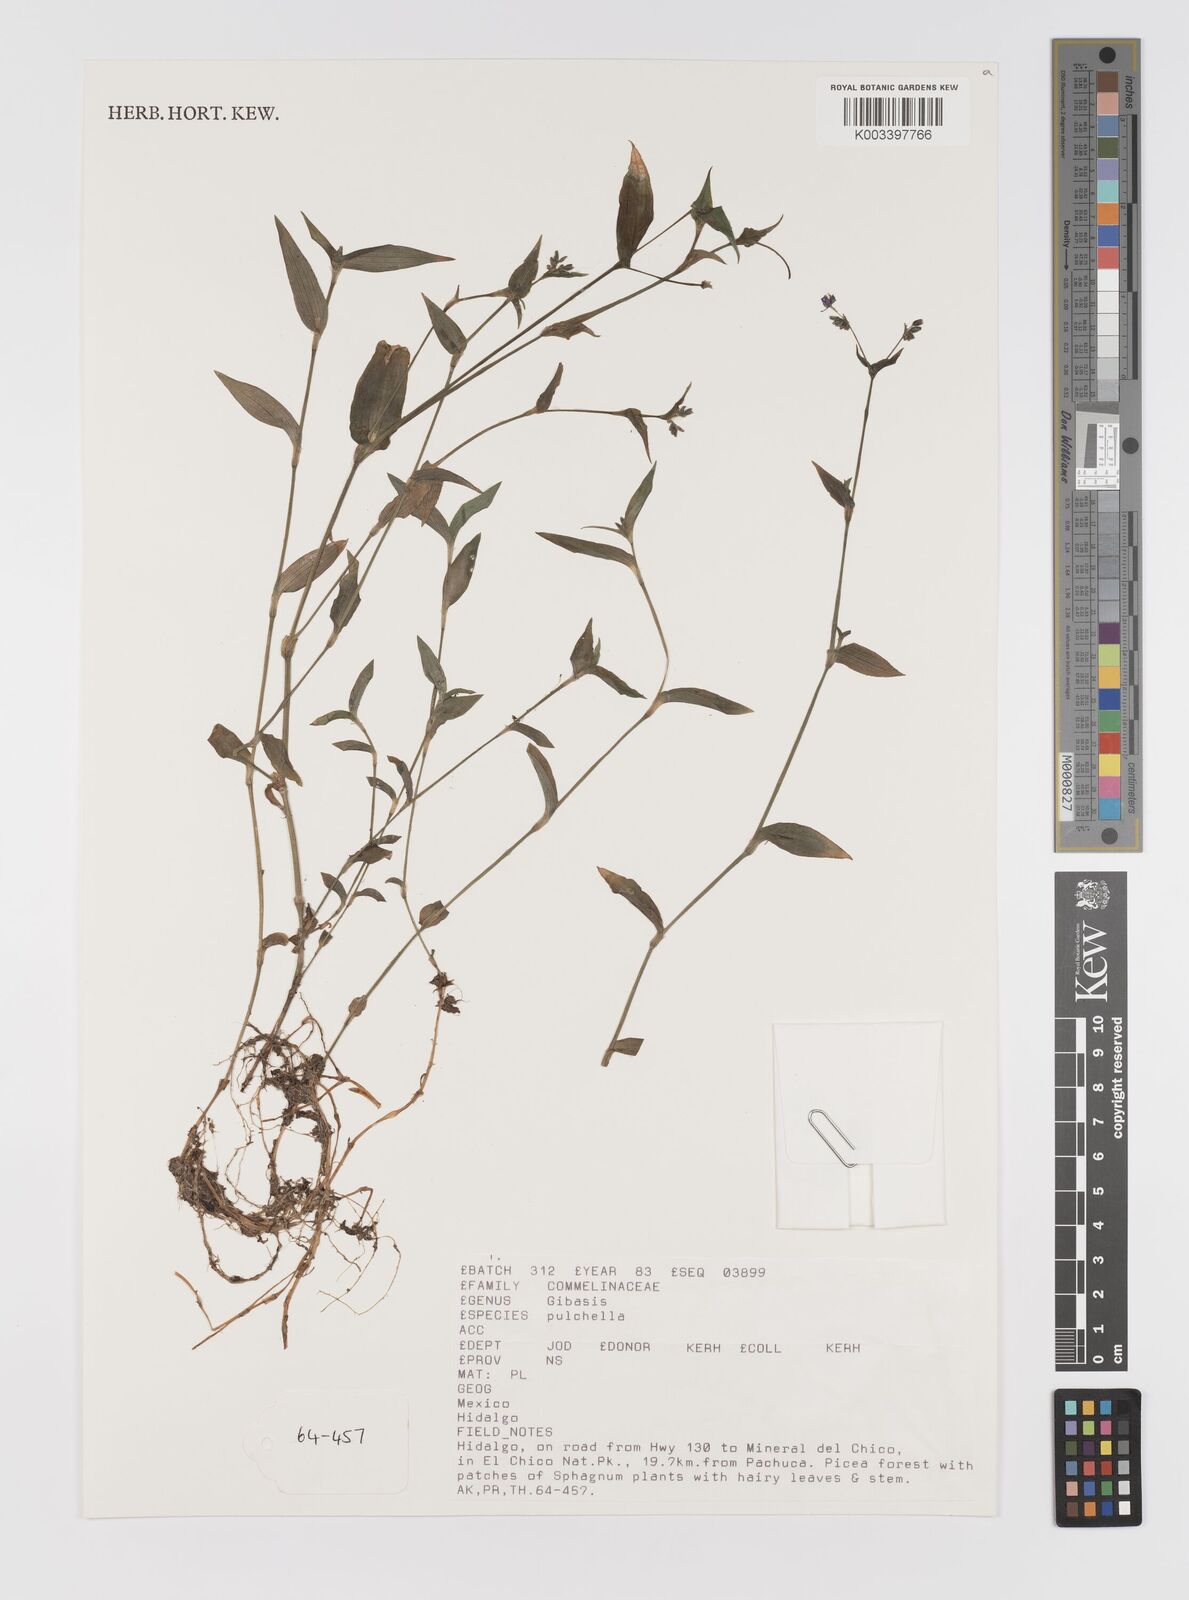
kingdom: Plantae
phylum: Tracheophyta
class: Liliopsida
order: Commelinales
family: Commelinaceae
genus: Gibasis
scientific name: Gibasis pulchella
